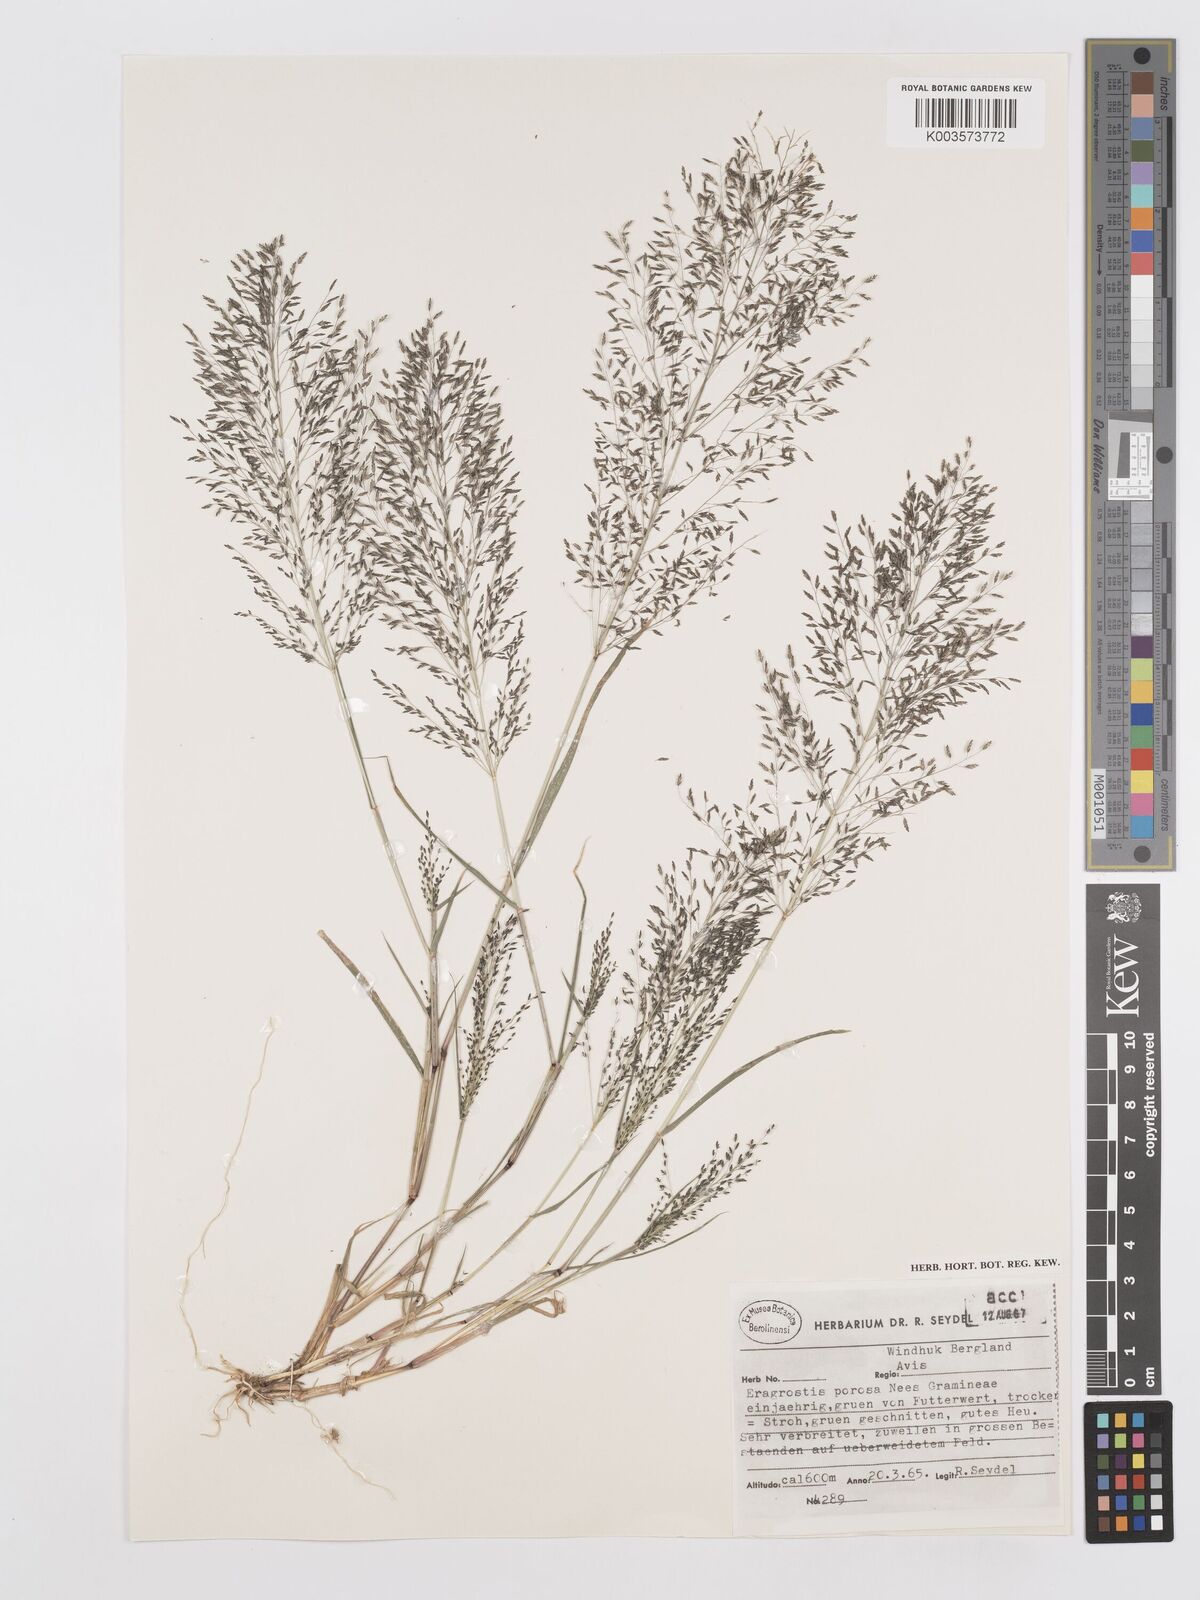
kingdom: Plantae
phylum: Tracheophyta
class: Liliopsida
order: Poales
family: Poaceae
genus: Eragrostis
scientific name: Eragrostis porosa
